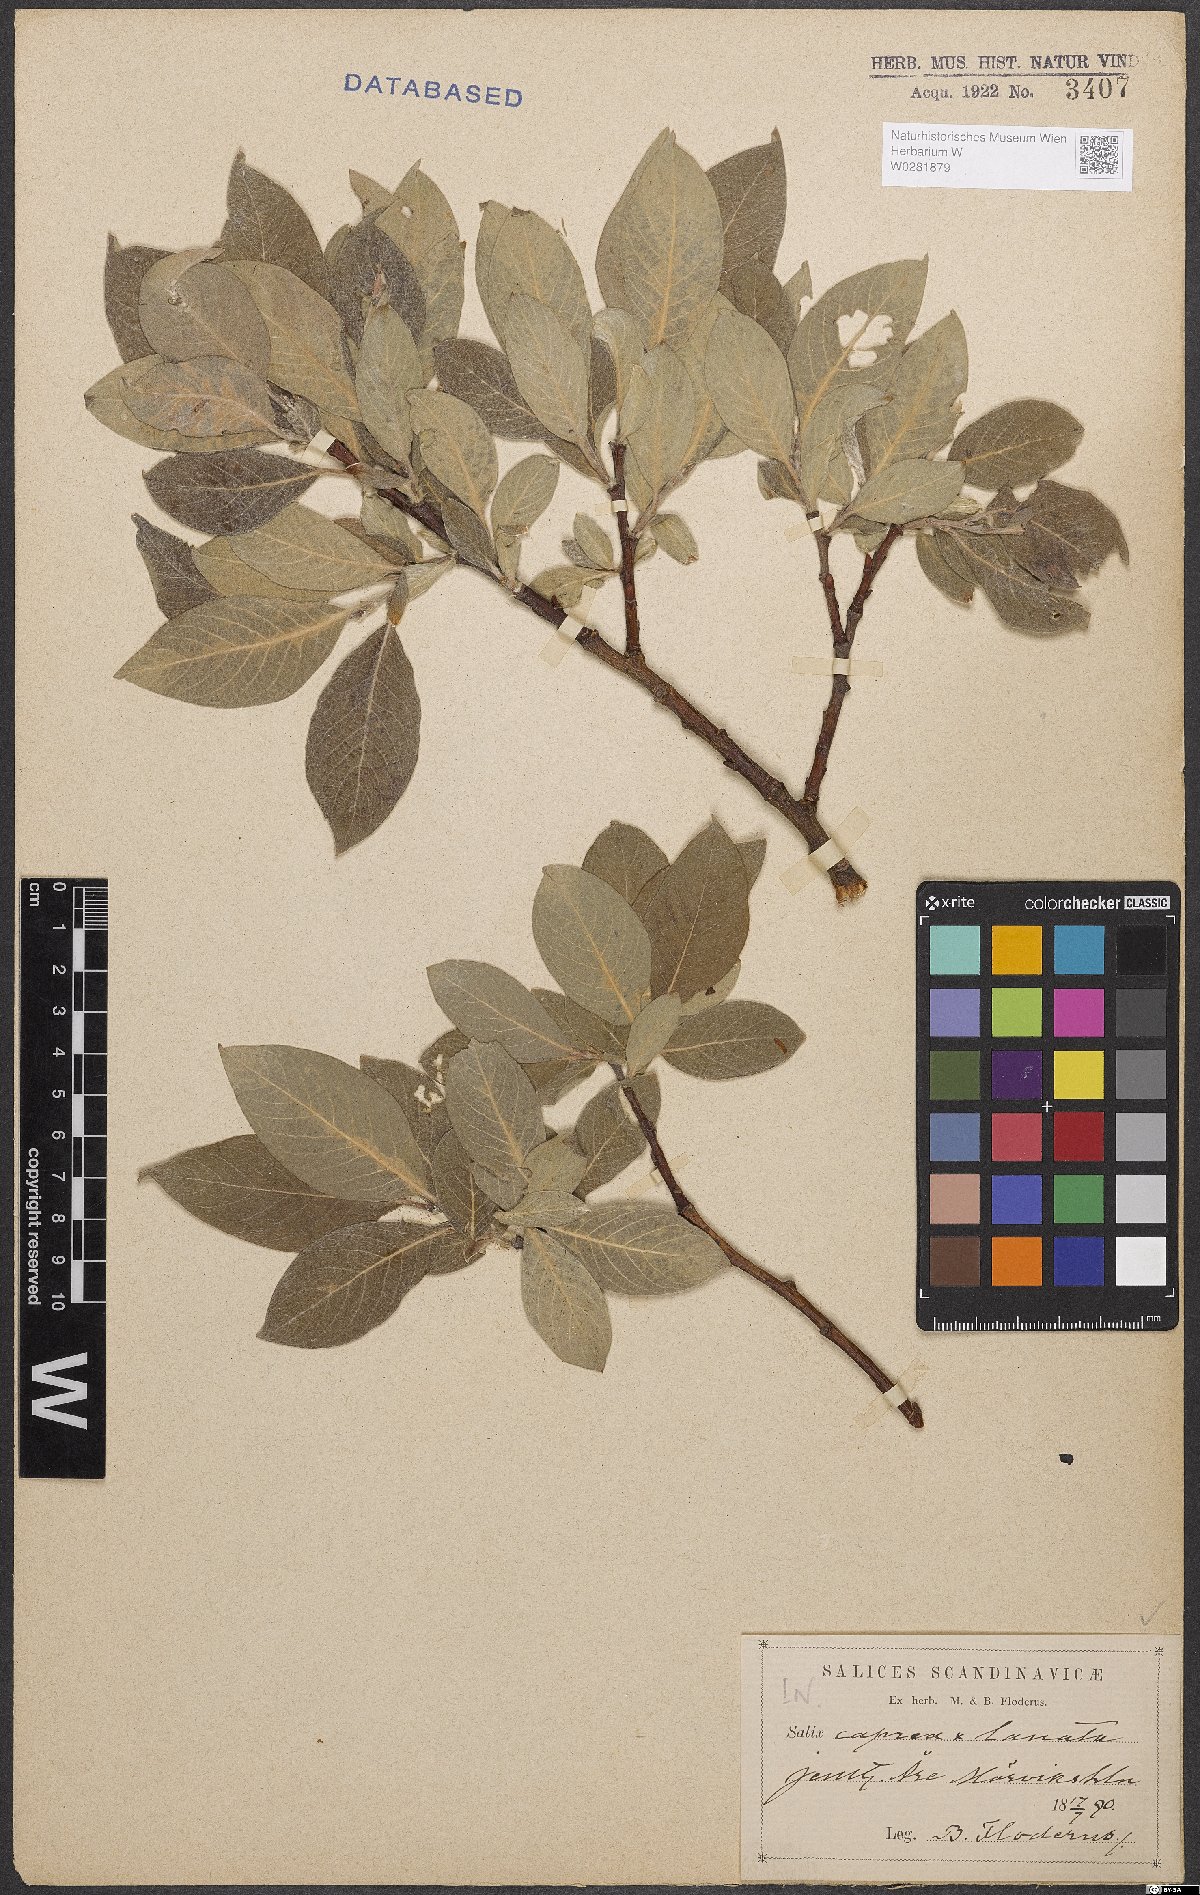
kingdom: Plantae
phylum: Tracheophyta
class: Magnoliopsida
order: Malpighiales
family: Salicaceae
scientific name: Salicaceae
